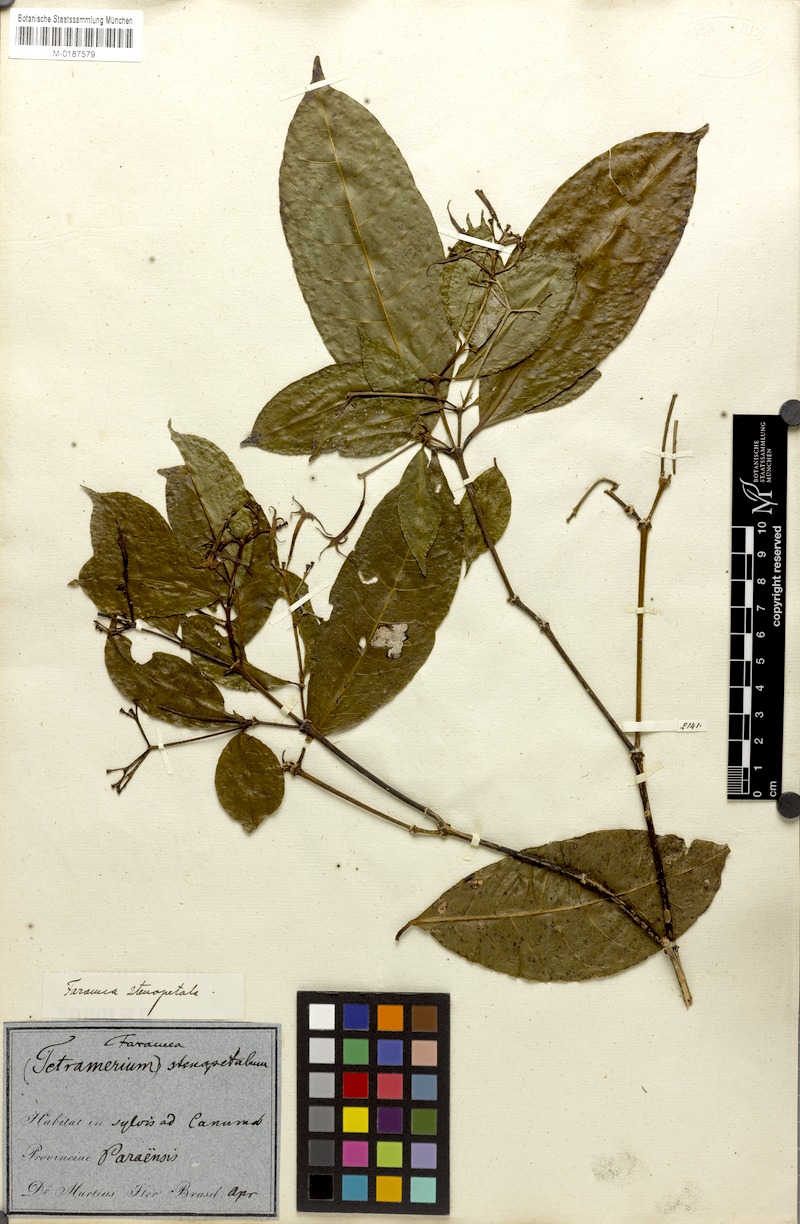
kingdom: Plantae
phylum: Tracheophyta
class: Magnoliopsida
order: Gentianales
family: Rubiaceae
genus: Faramea
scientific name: Faramea stenopetala
